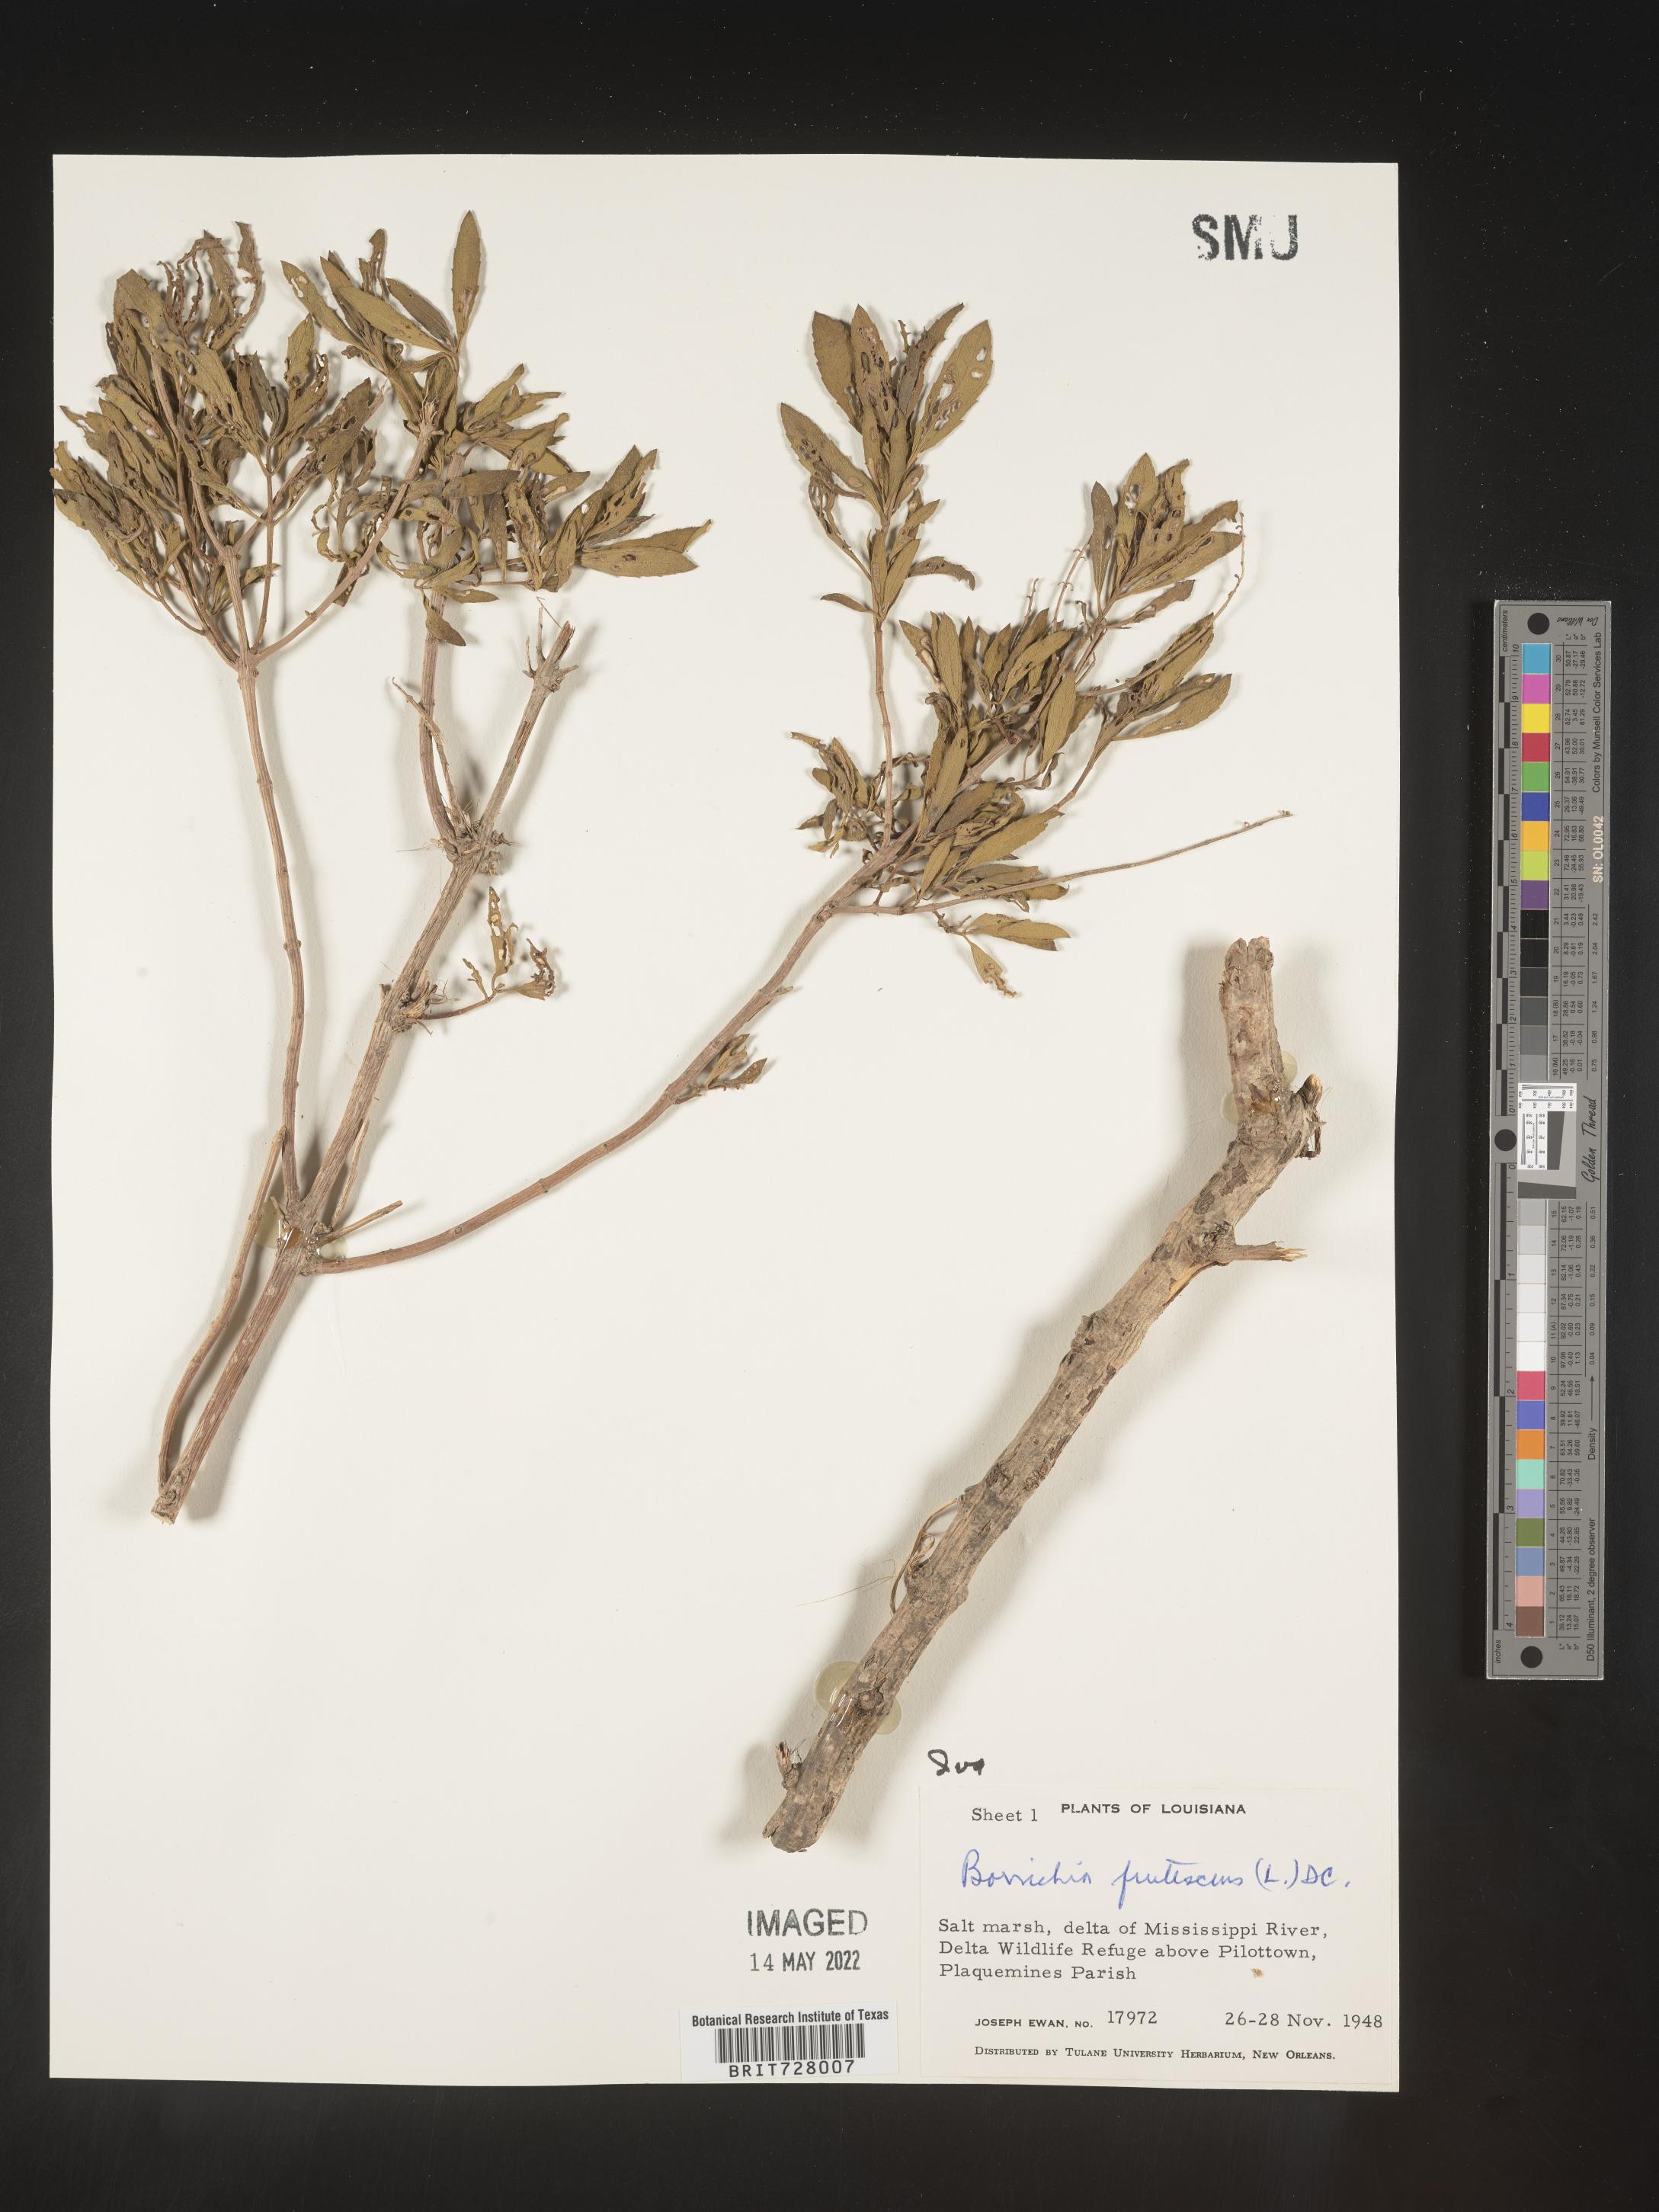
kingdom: Plantae
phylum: Tracheophyta
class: Magnoliopsida
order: Asterales
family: Asteraceae
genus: Iva
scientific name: Iva frutescens
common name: Big-leaved marsh-elder
